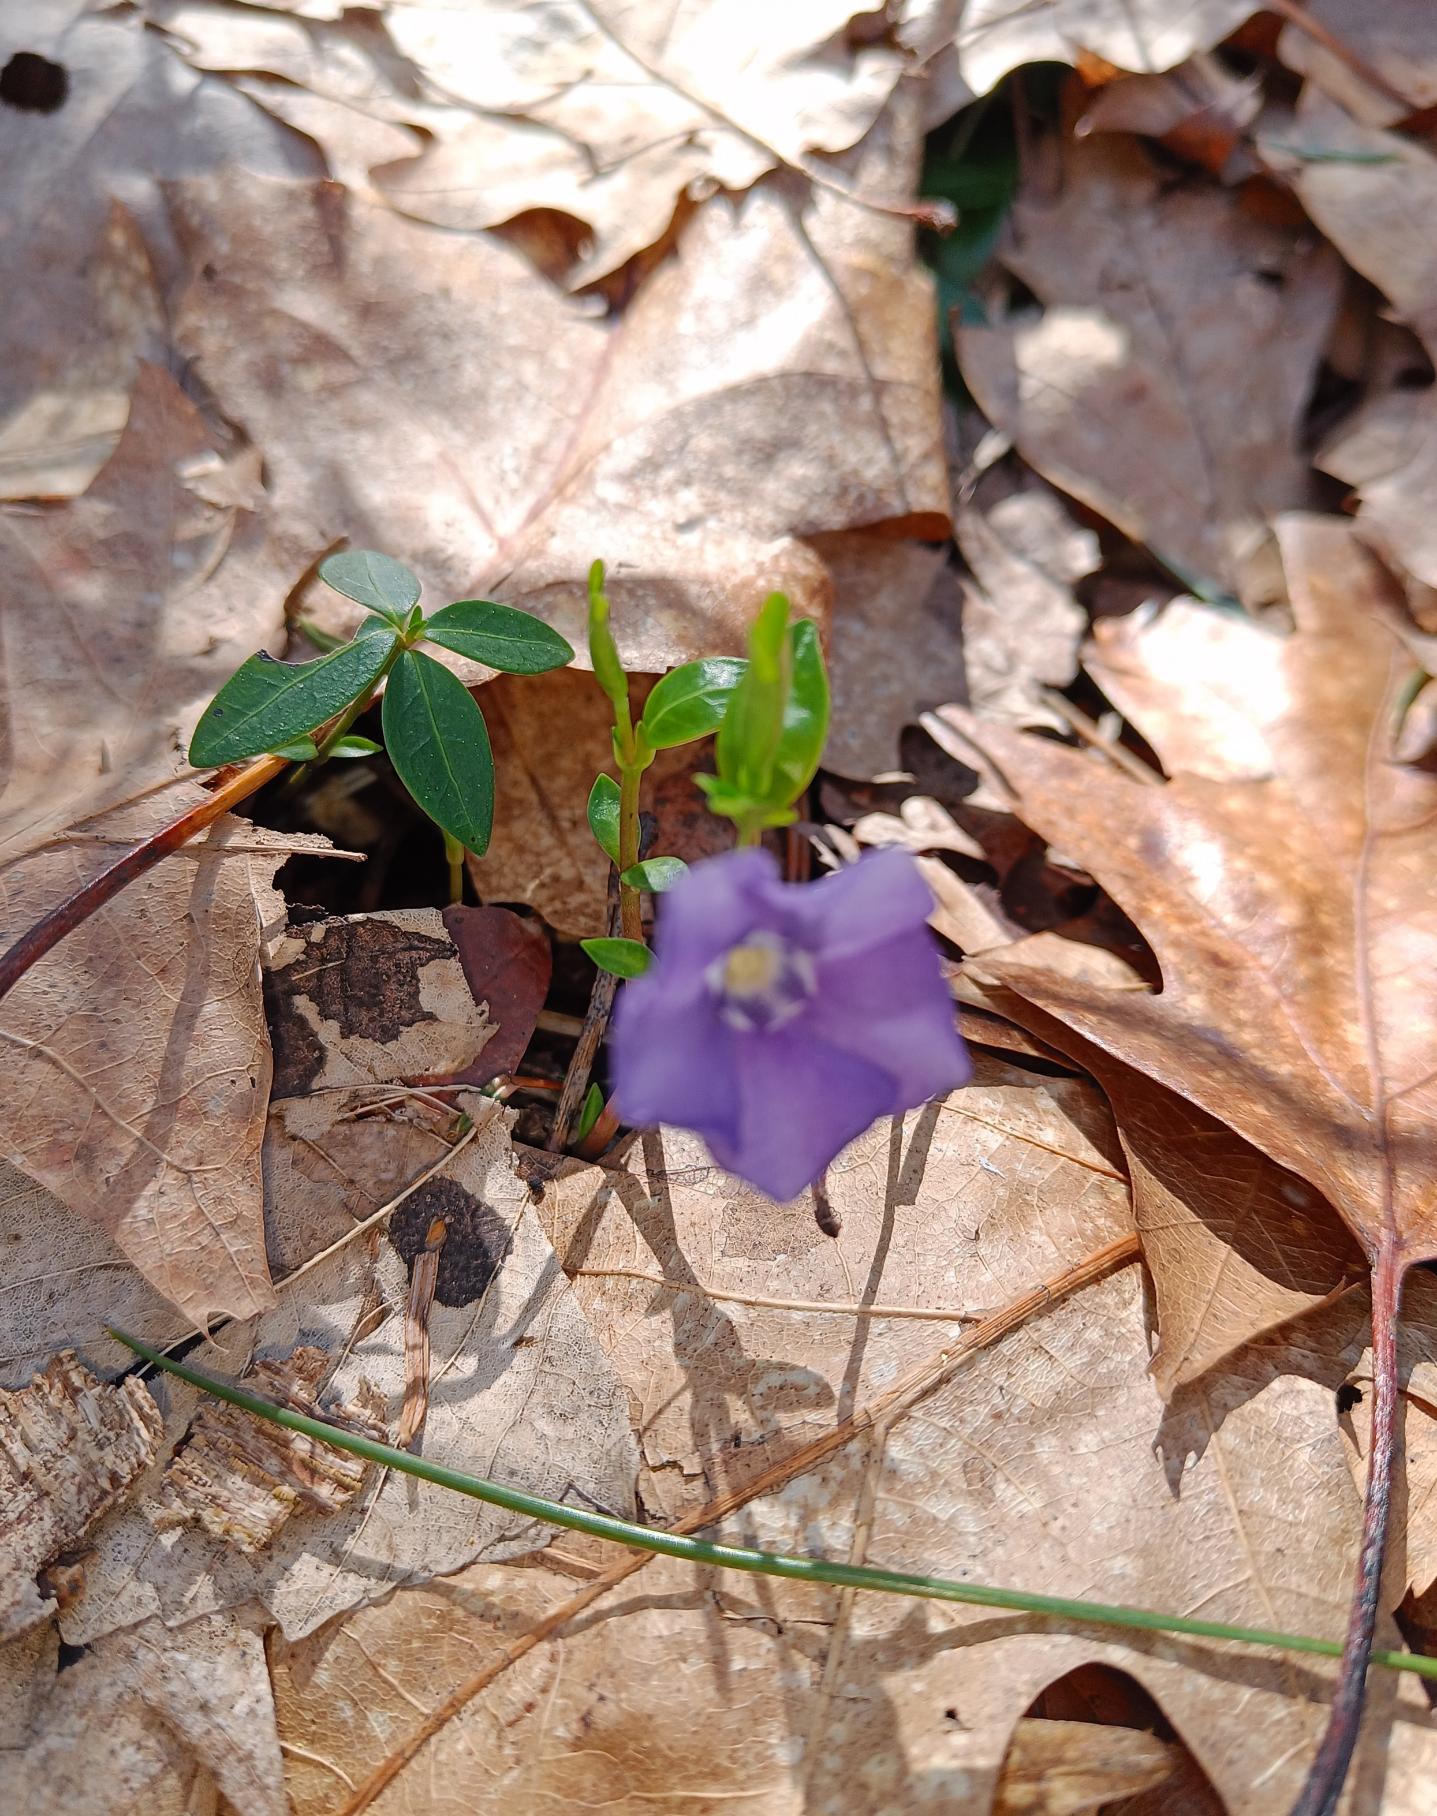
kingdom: Plantae
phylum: Tracheophyta
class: Magnoliopsida
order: Gentianales
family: Apocynaceae
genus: Vinca
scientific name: Vinca minor
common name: Liden singrøn
